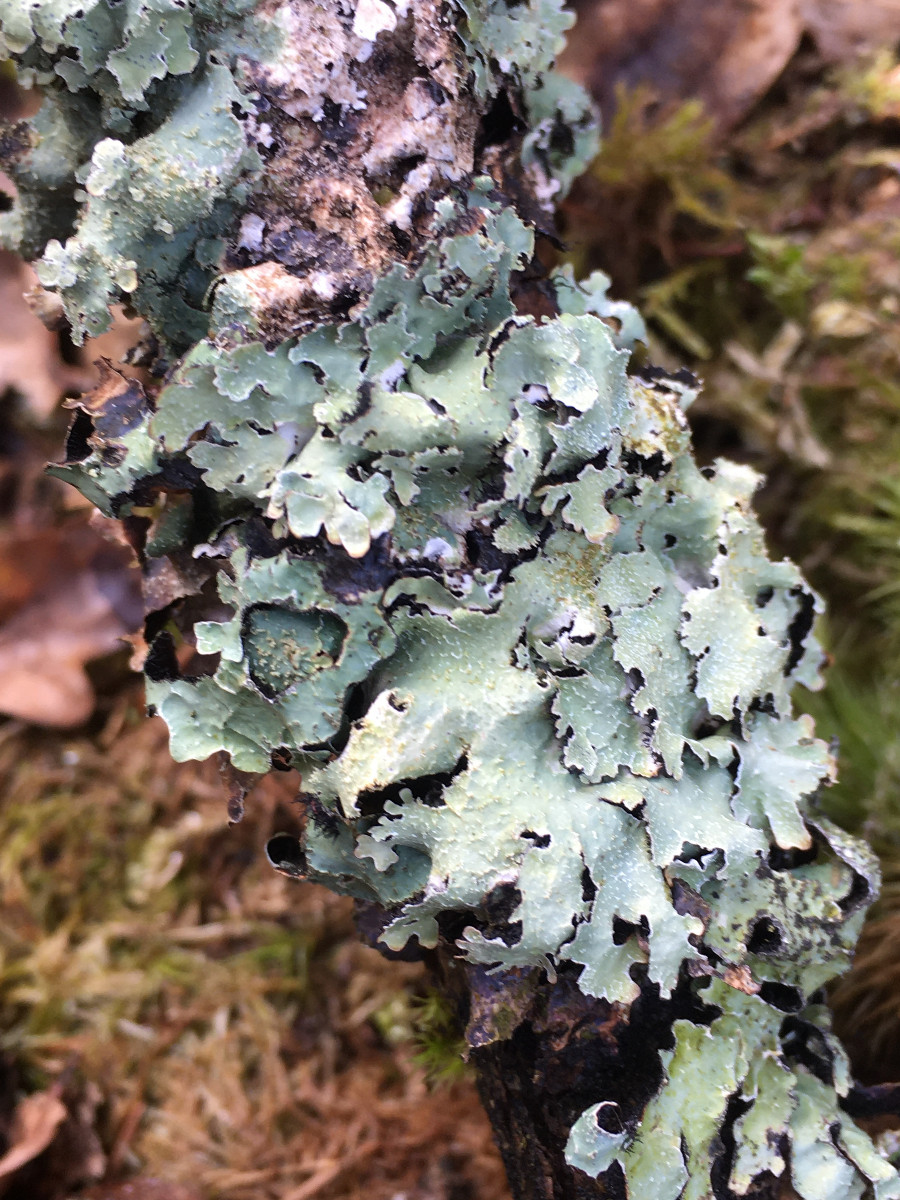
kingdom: Fungi
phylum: Ascomycota
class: Lecanoromycetes
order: Lecanorales
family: Parmeliaceae
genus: Parmelia
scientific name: Parmelia saxatilis
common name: farve-skållav
